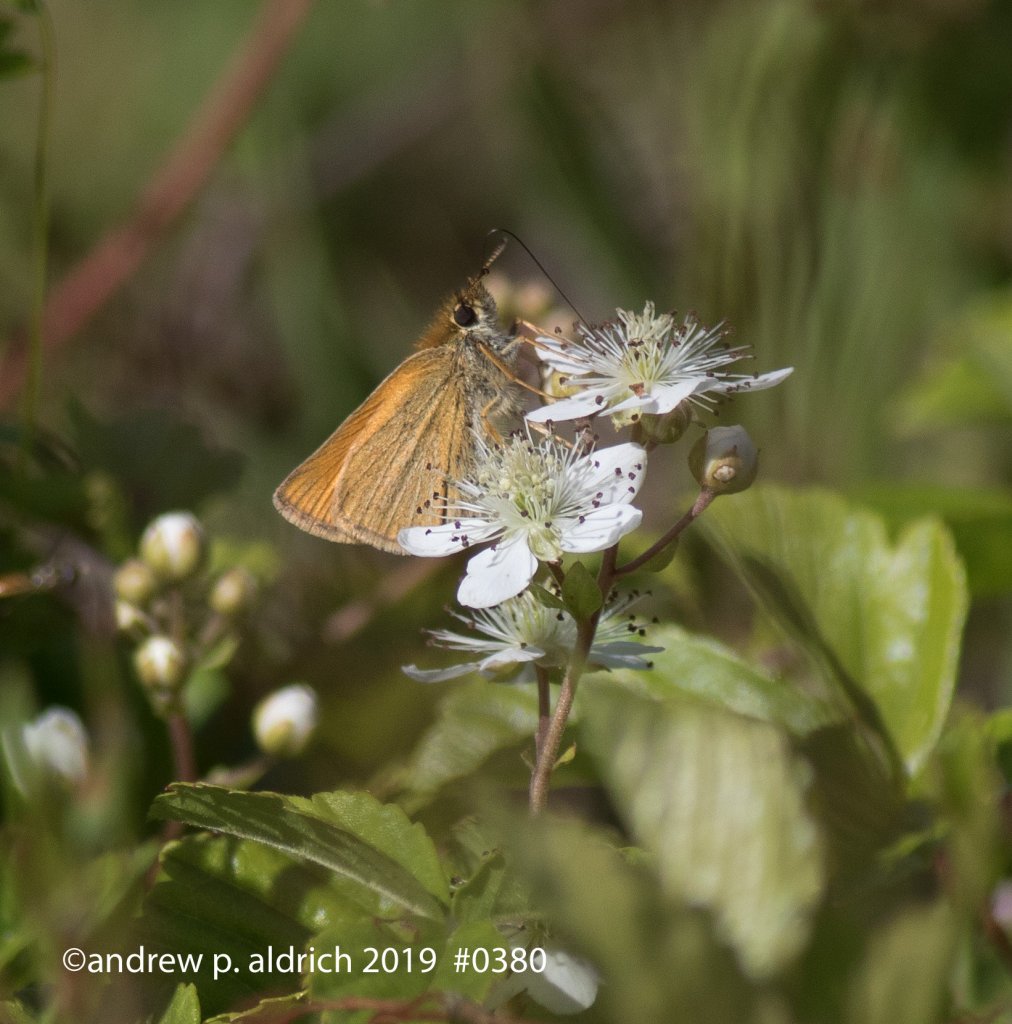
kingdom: Animalia
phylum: Arthropoda
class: Insecta
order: Lepidoptera
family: Hesperiidae
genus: Thymelicus
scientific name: Thymelicus lineola
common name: European Skipper
